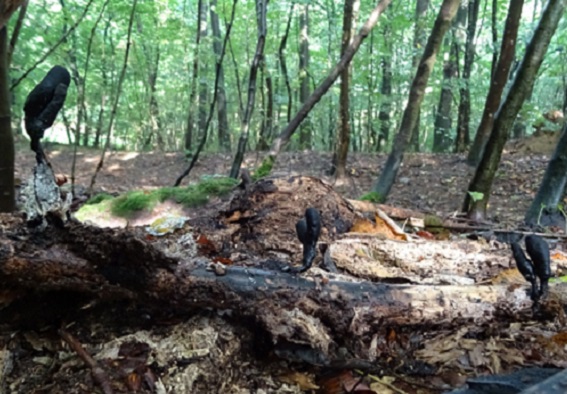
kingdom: Fungi
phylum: Ascomycota
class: Sordariomycetes
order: Xylariales
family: Xylariaceae
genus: Xylaria
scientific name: Xylaria longipes
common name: slank stødsvamp
